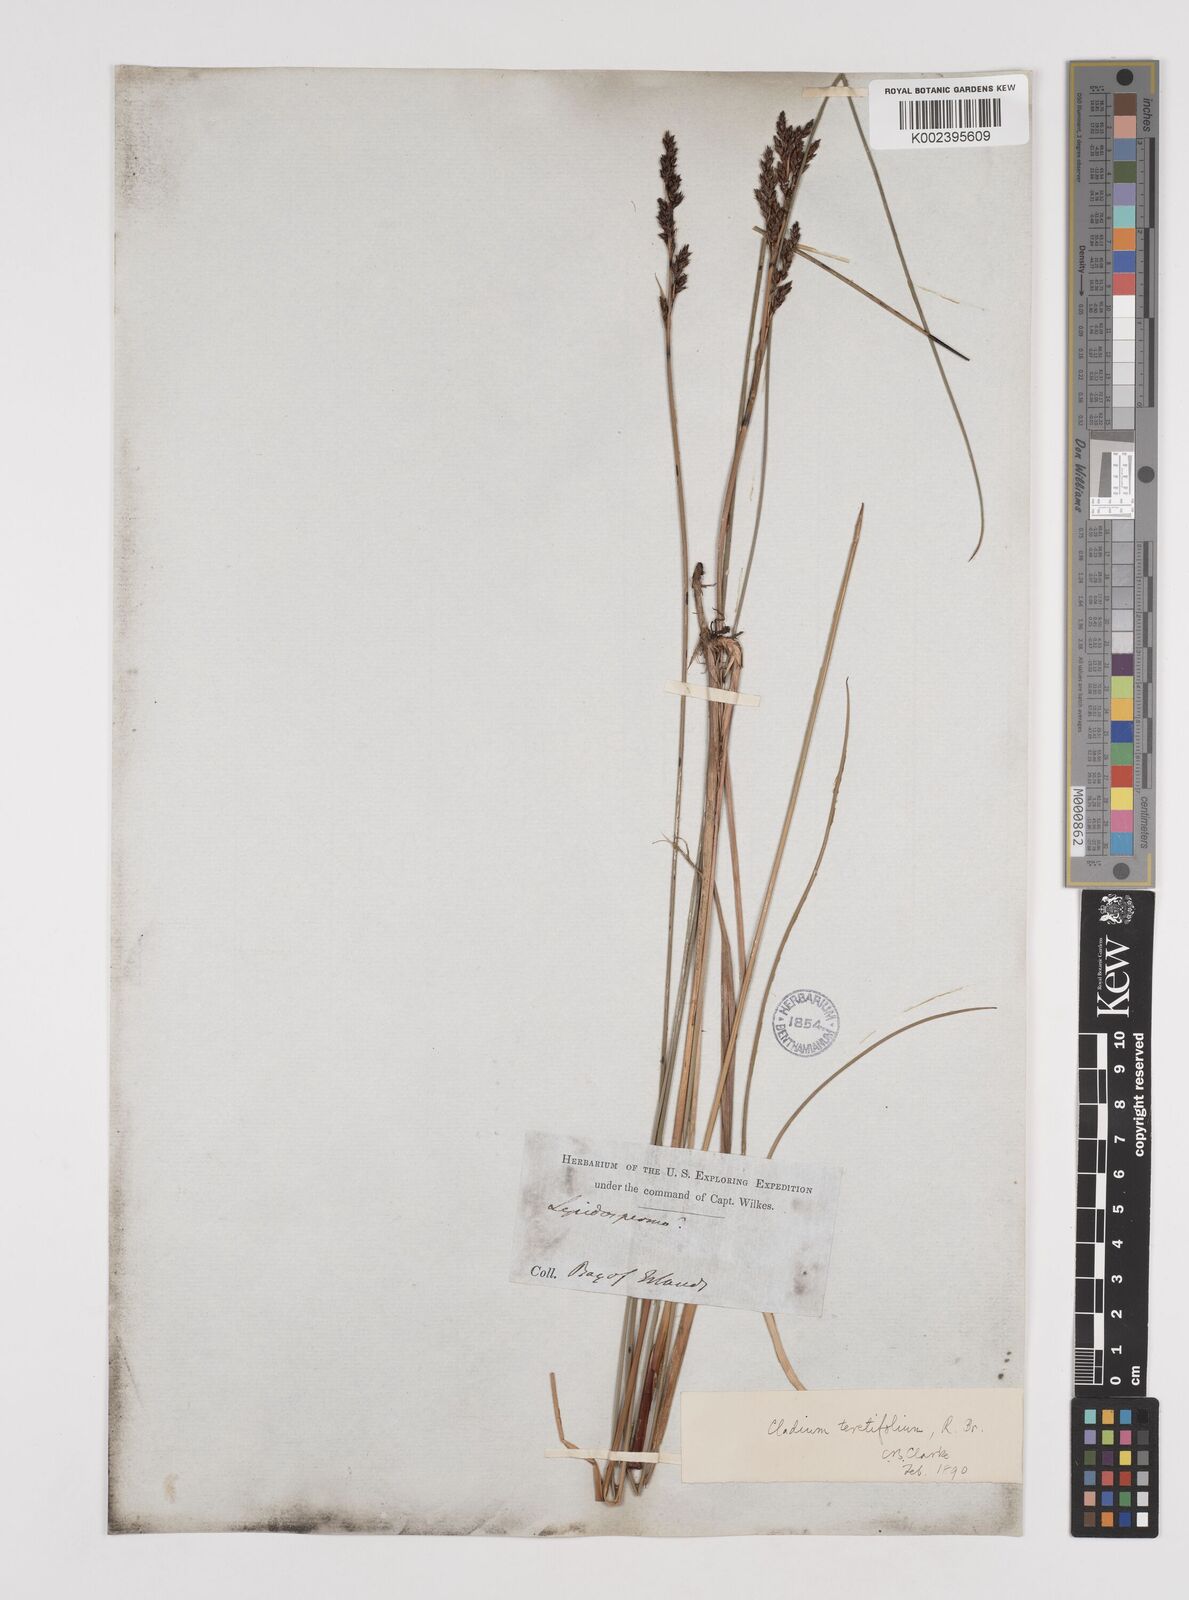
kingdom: Plantae
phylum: Tracheophyta
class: Liliopsida
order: Poales
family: Cyperaceae
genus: Machaerina
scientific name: Machaerina teretifolia
